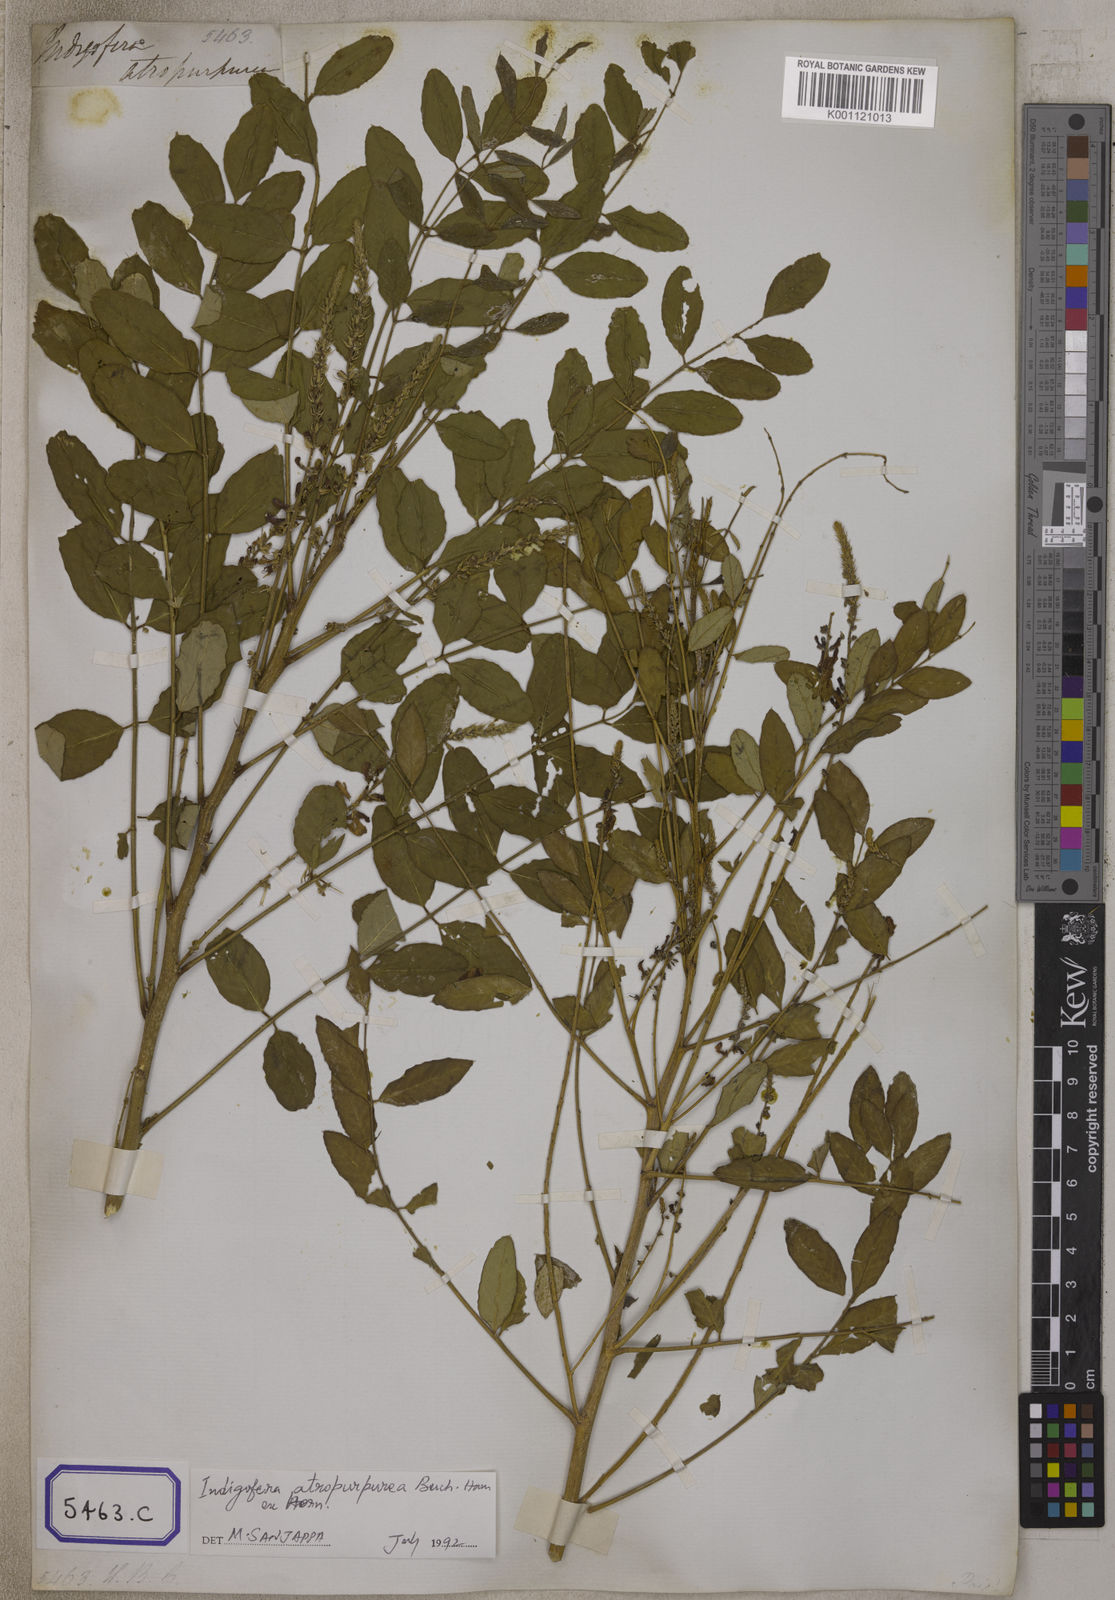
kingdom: Plantae
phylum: Tracheophyta
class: Magnoliopsida
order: Fabales
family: Fabaceae
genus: Indigofera
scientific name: Indigofera
